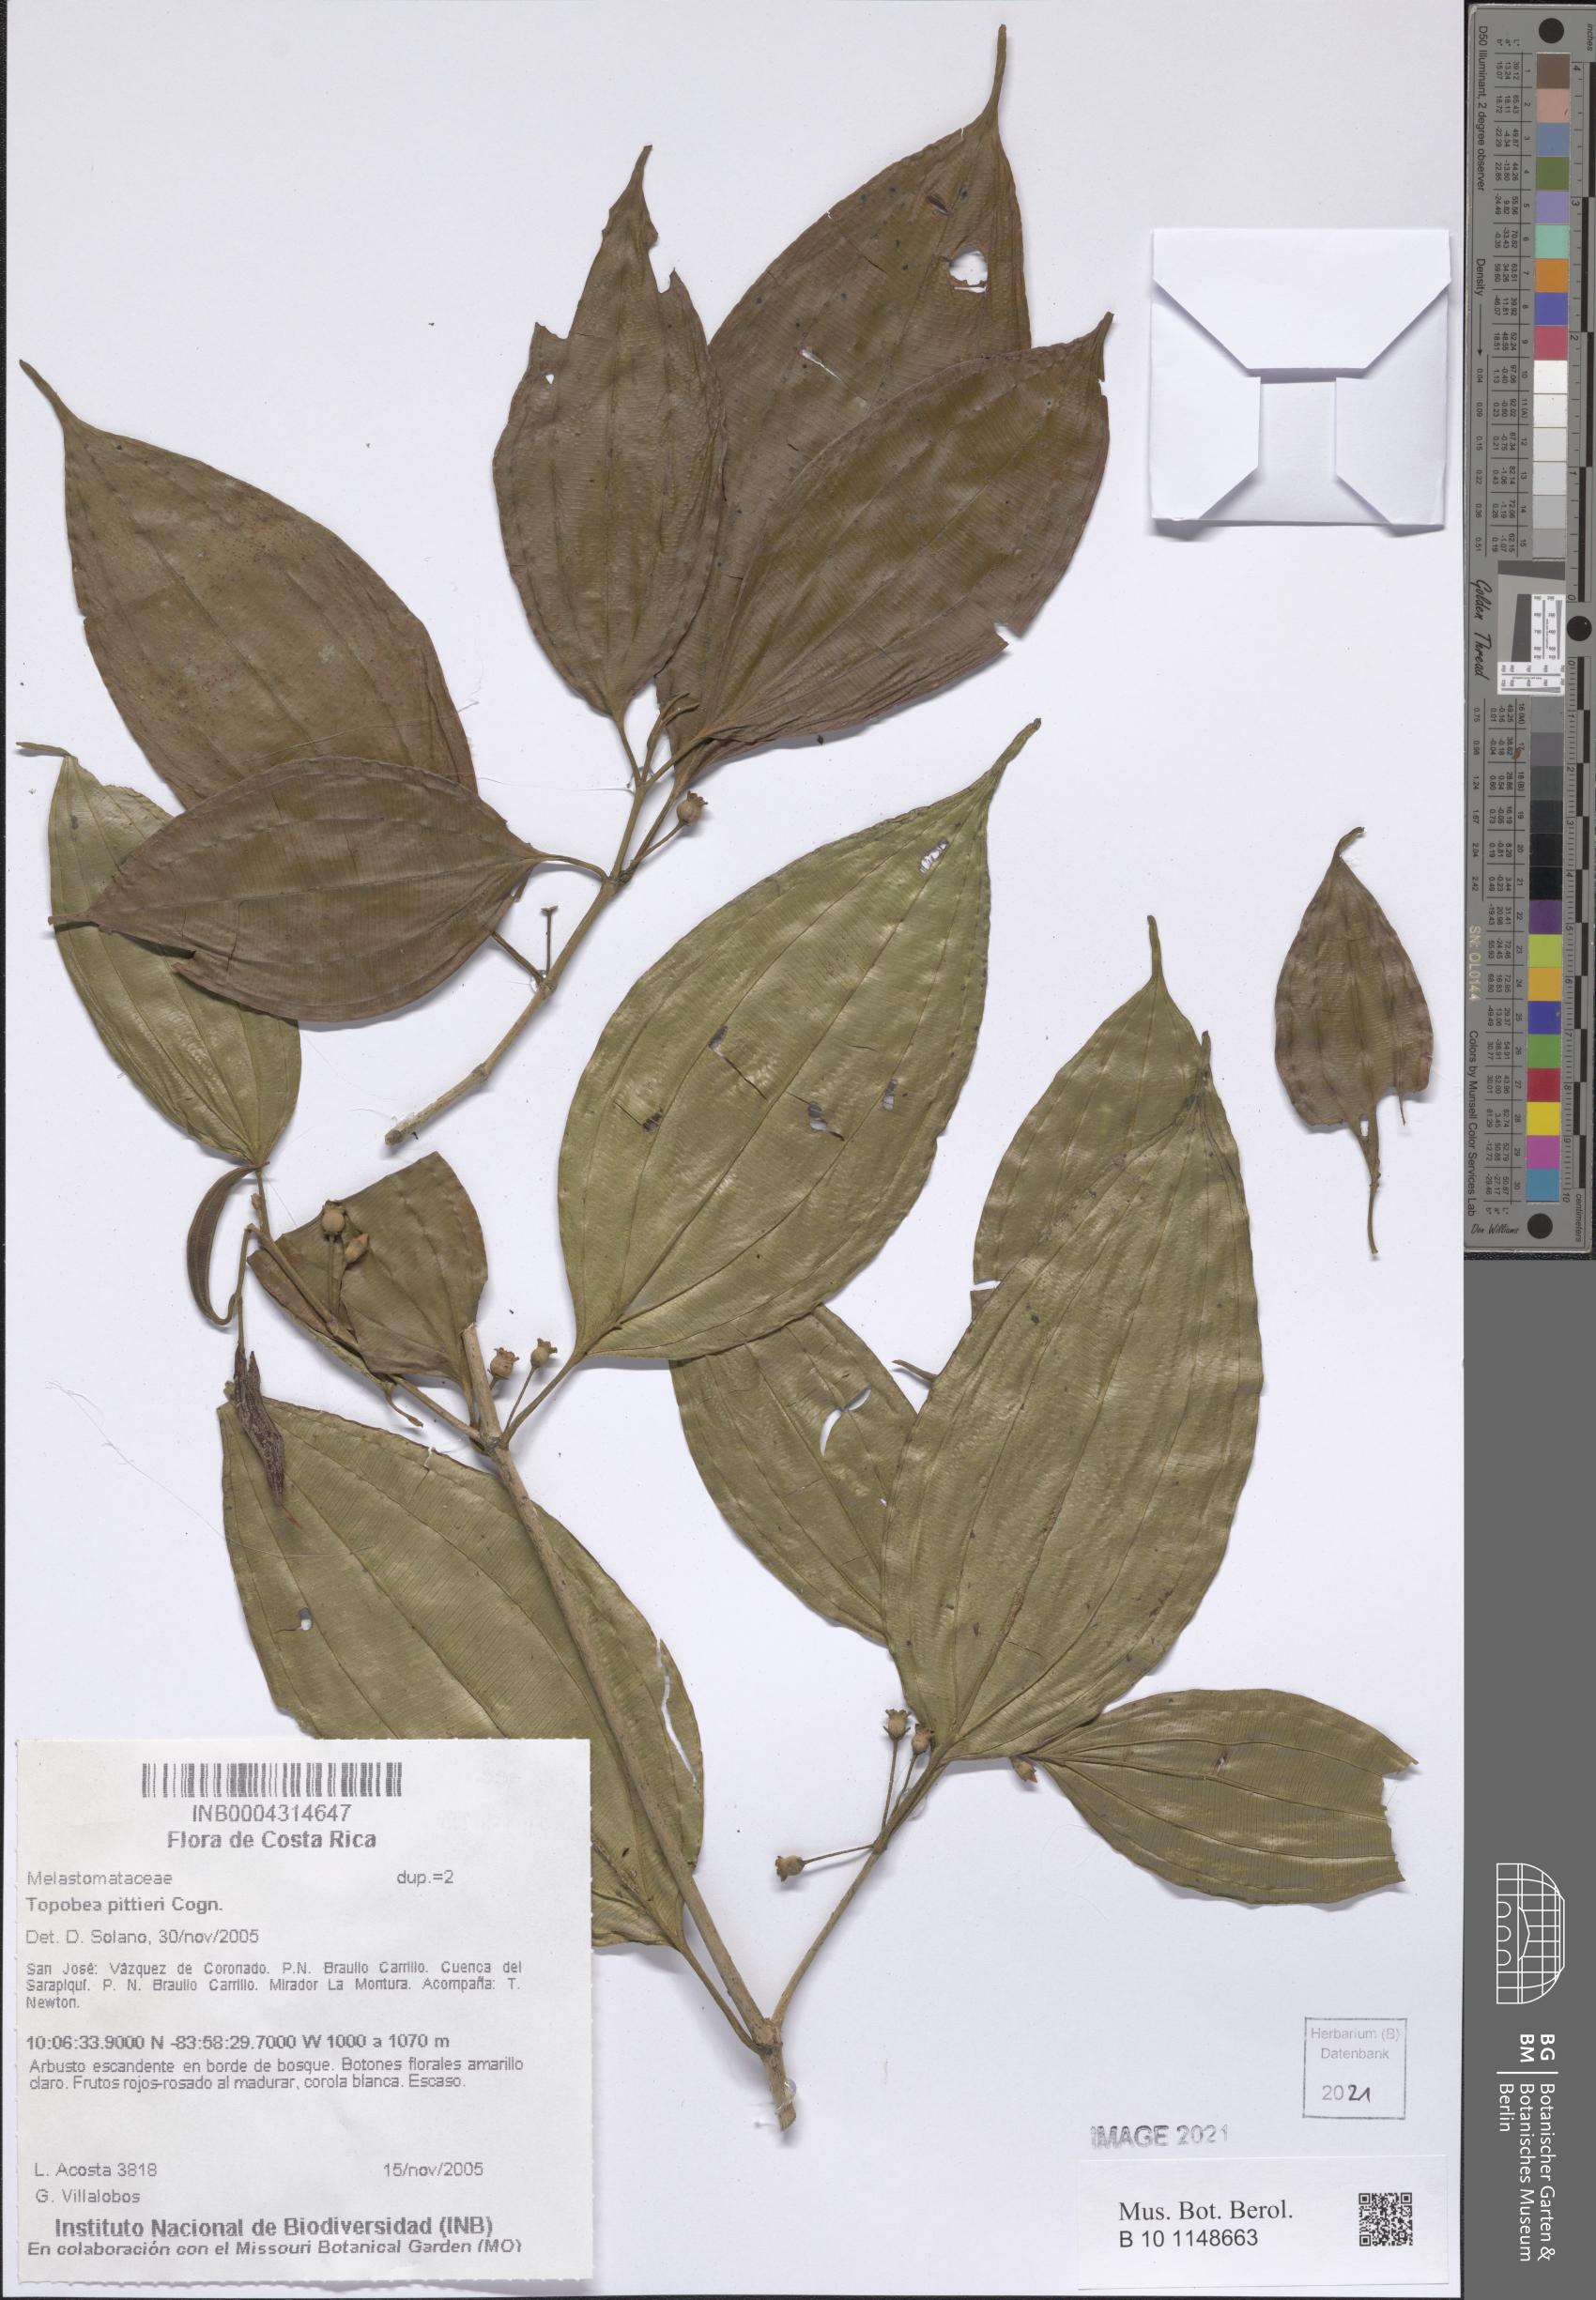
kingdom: Plantae
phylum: Tracheophyta
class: Magnoliopsida
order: Myrtales
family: Melastomataceae
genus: Blakea
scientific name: Blakea henripittieri
